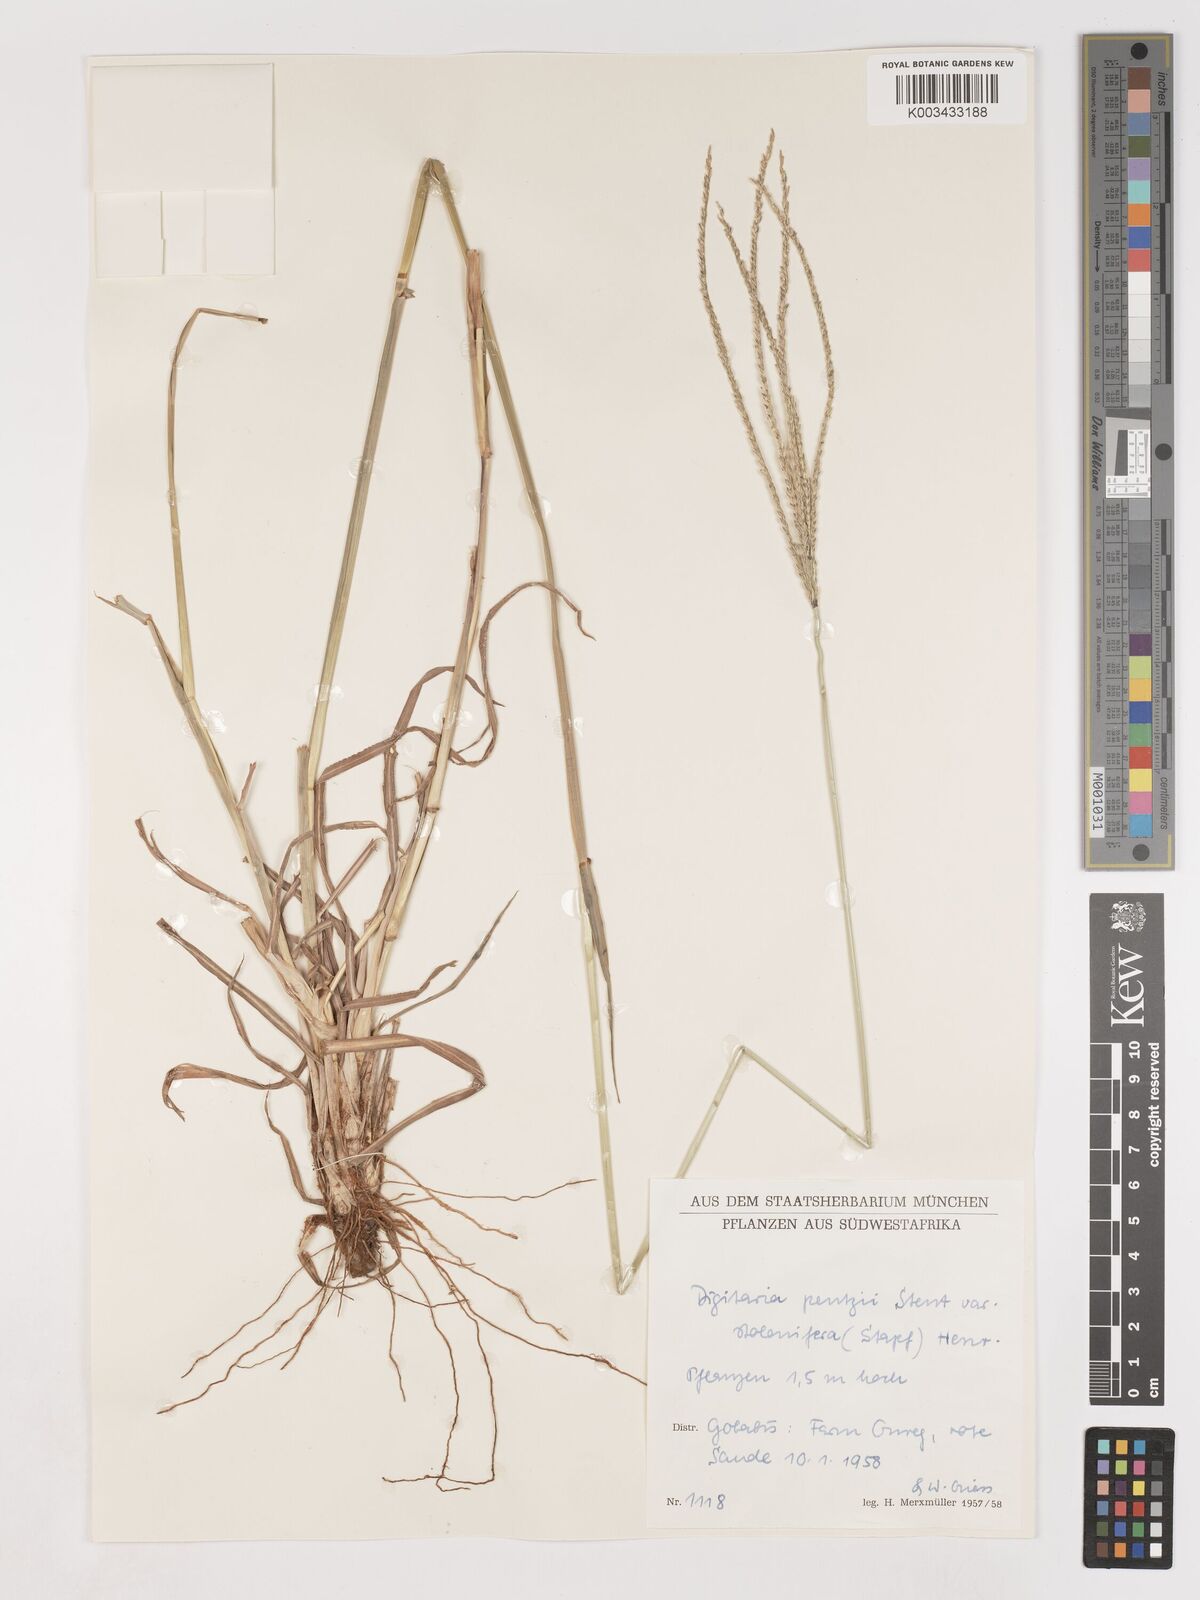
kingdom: Plantae
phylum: Tracheophyta
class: Liliopsida
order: Poales
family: Poaceae
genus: Digitaria
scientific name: Digitaria eriantha
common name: Digitgrass
